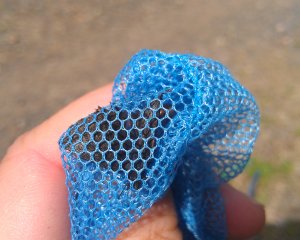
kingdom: Animalia
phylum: Arthropoda
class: Insecta
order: Lepidoptera
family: Hesperiidae
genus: Erynnis
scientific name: Erynnis icelus
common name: Dreamy Duskywing
